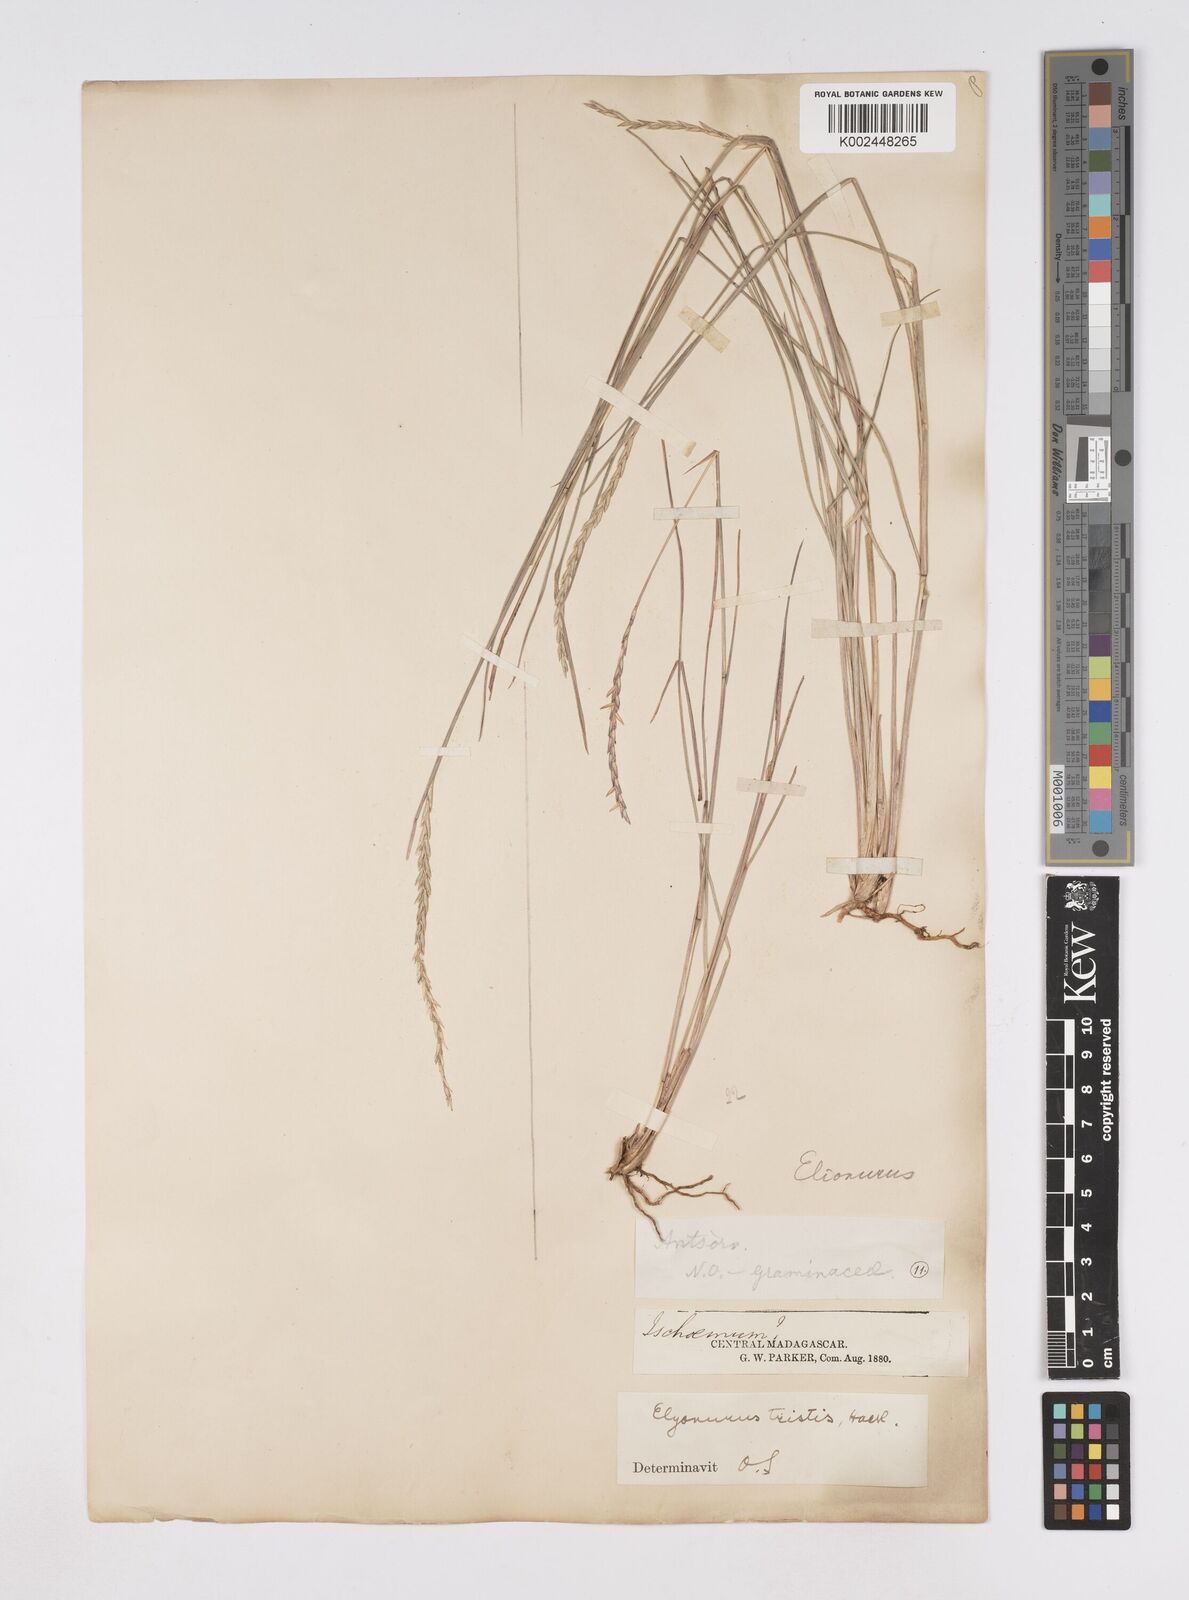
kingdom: Plantae
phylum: Tracheophyta
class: Liliopsida
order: Poales
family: Poaceae
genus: Elionurus
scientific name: Elionurus tristis
